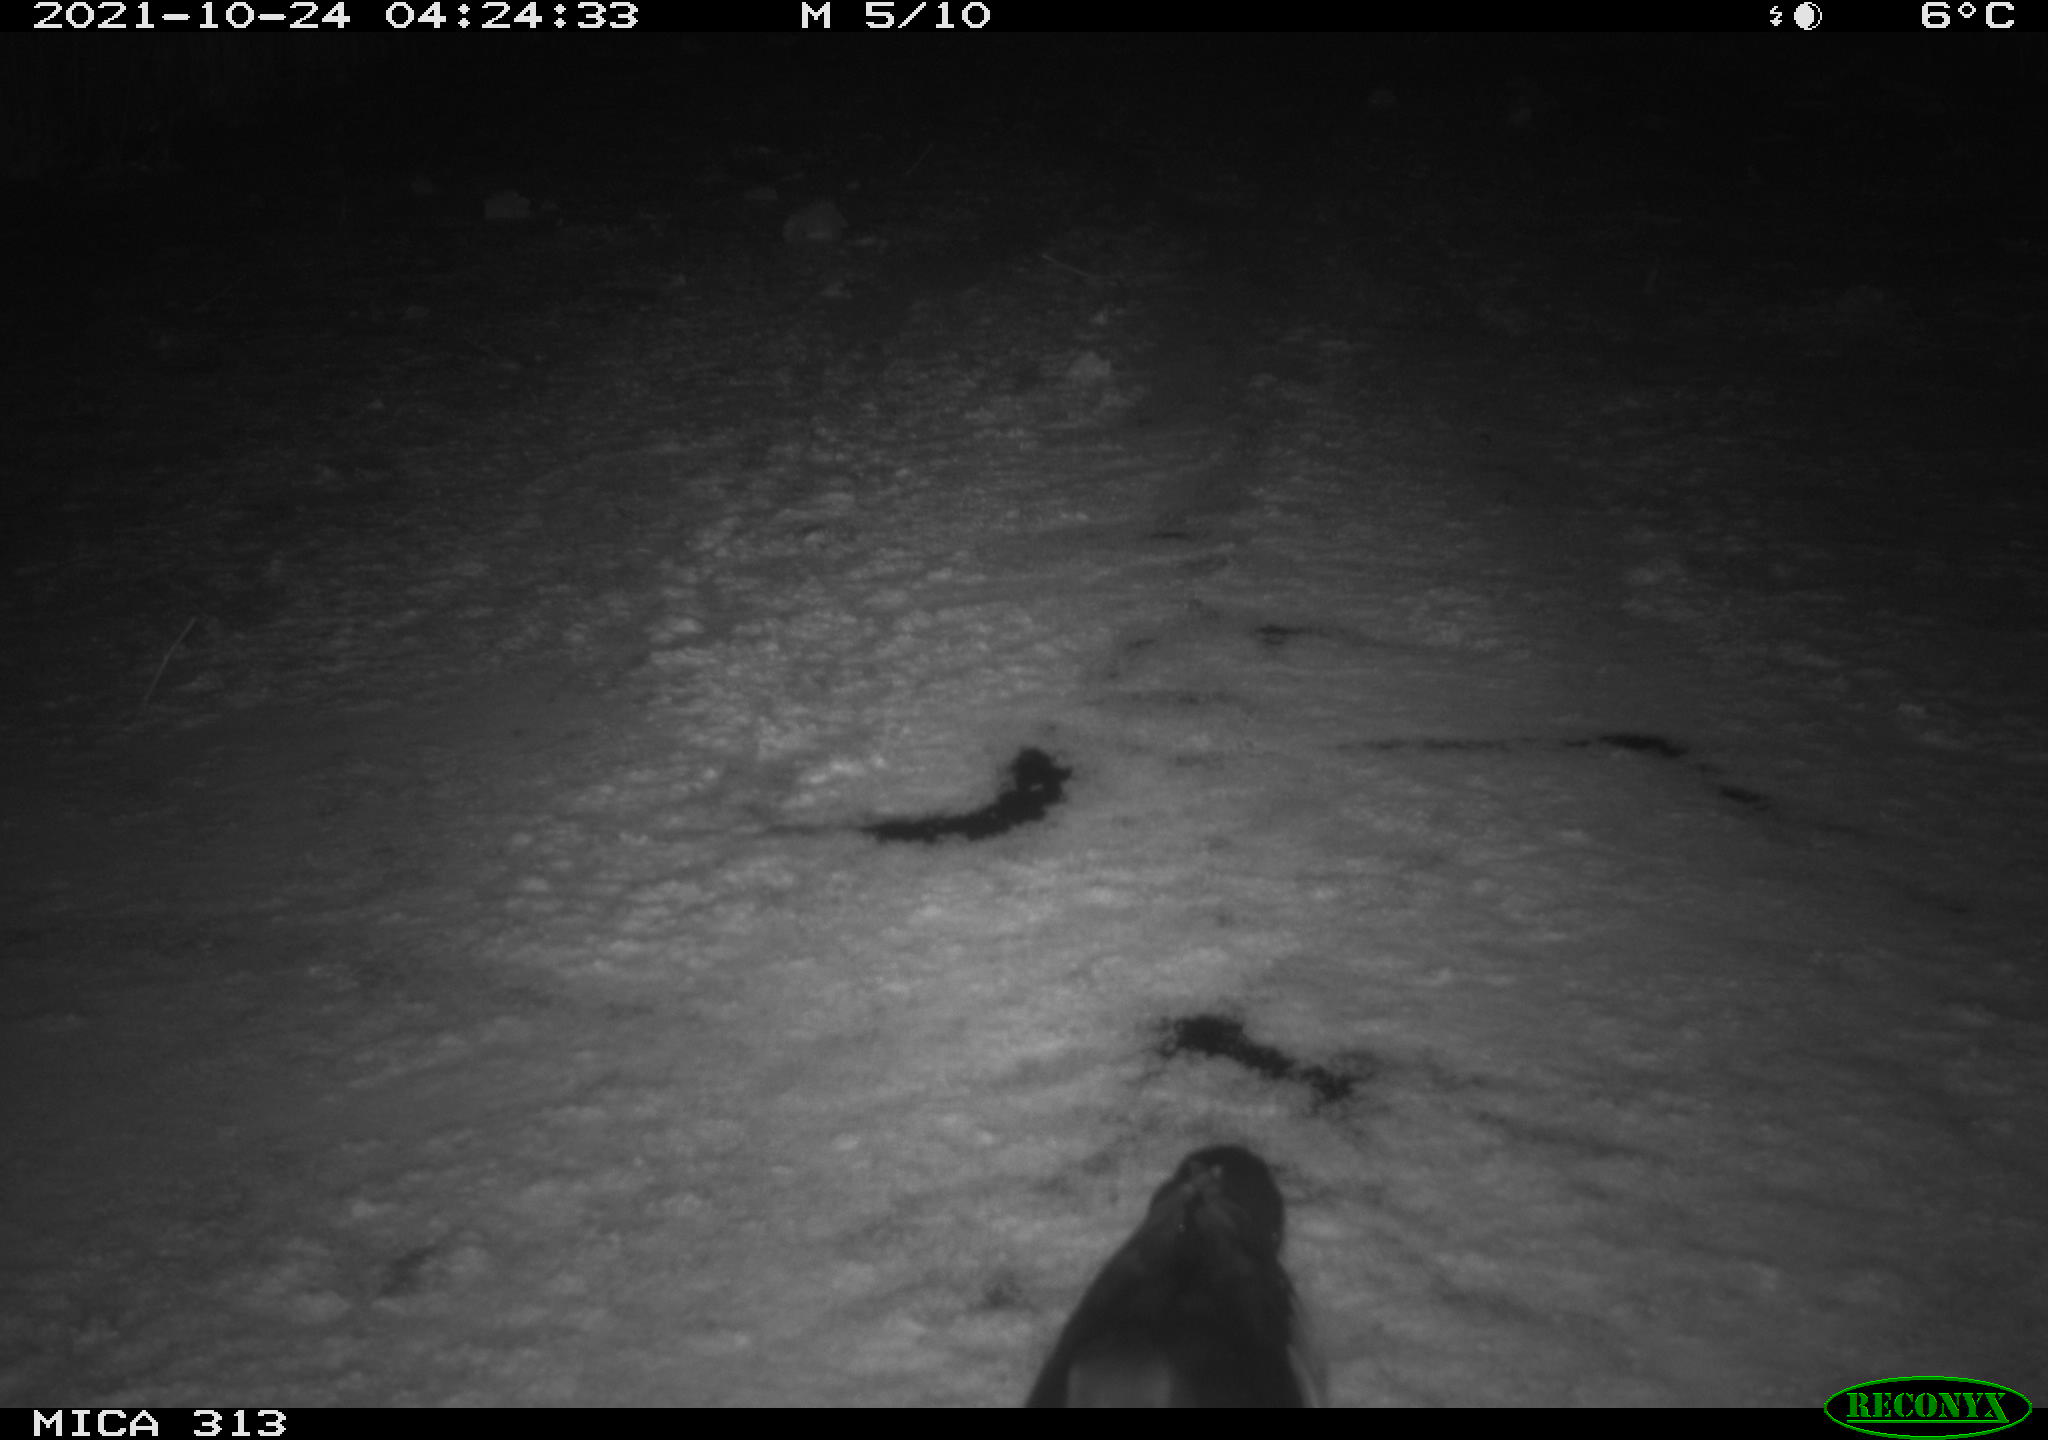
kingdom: Animalia
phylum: Chordata
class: Aves
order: Gruiformes
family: Rallidae
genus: Gallinula
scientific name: Gallinula chloropus
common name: Common moorhen
